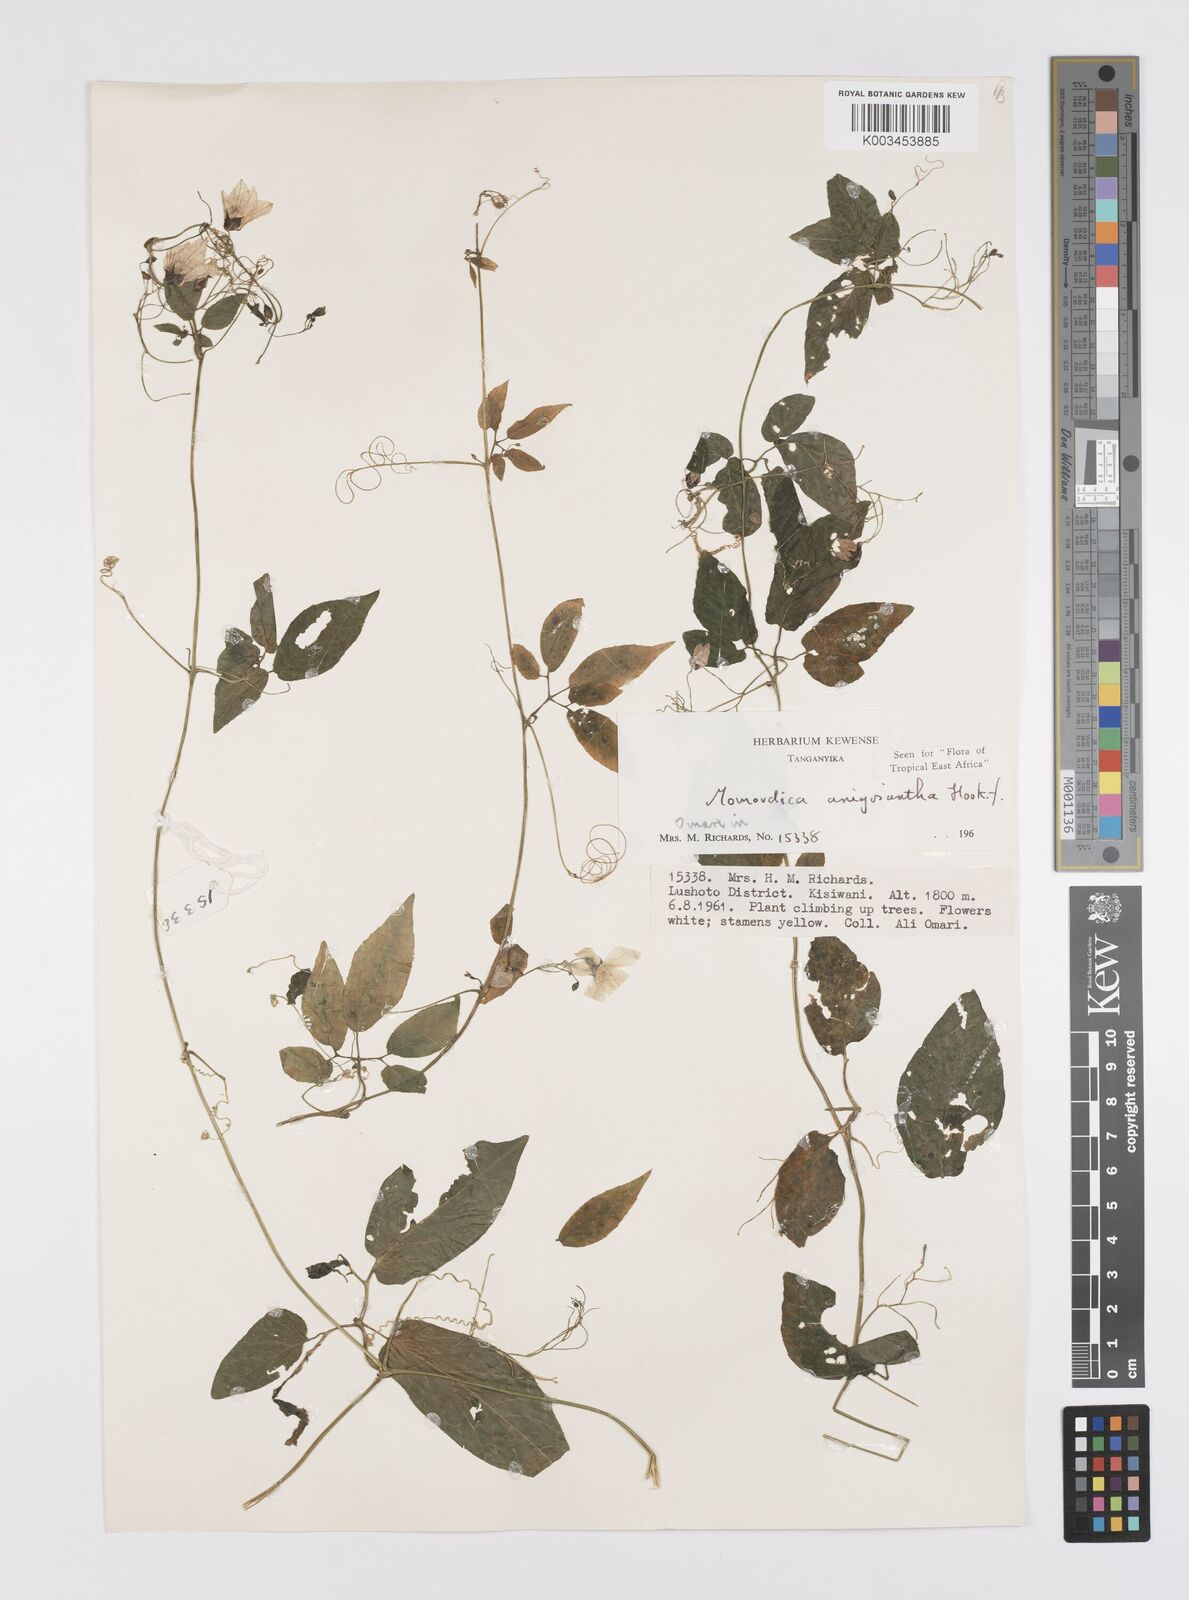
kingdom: Plantae
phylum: Tracheophyta
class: Magnoliopsida
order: Cucurbitales
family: Cucurbitaceae
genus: Momordica
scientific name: Momordica anigosantha
